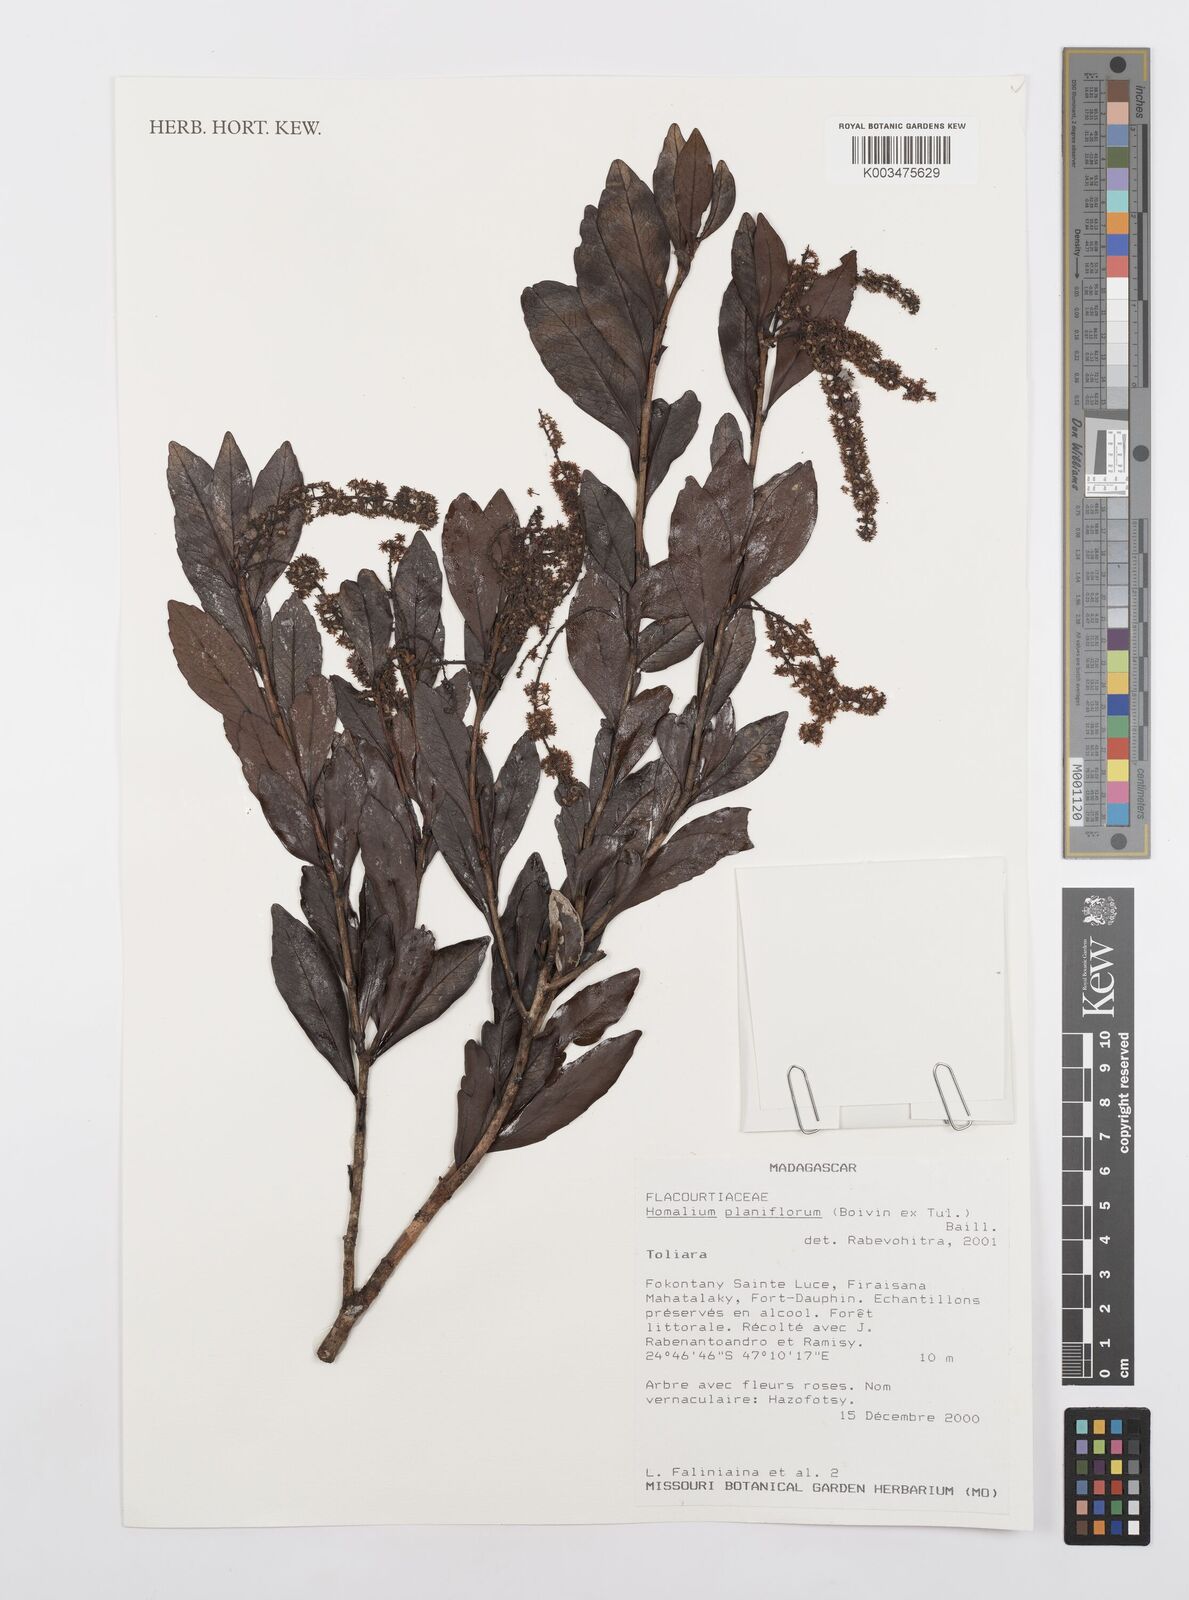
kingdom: Plantae
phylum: Tracheophyta
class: Magnoliopsida
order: Malpighiales
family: Salicaceae
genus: Homalium
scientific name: Homalium planiflorum
